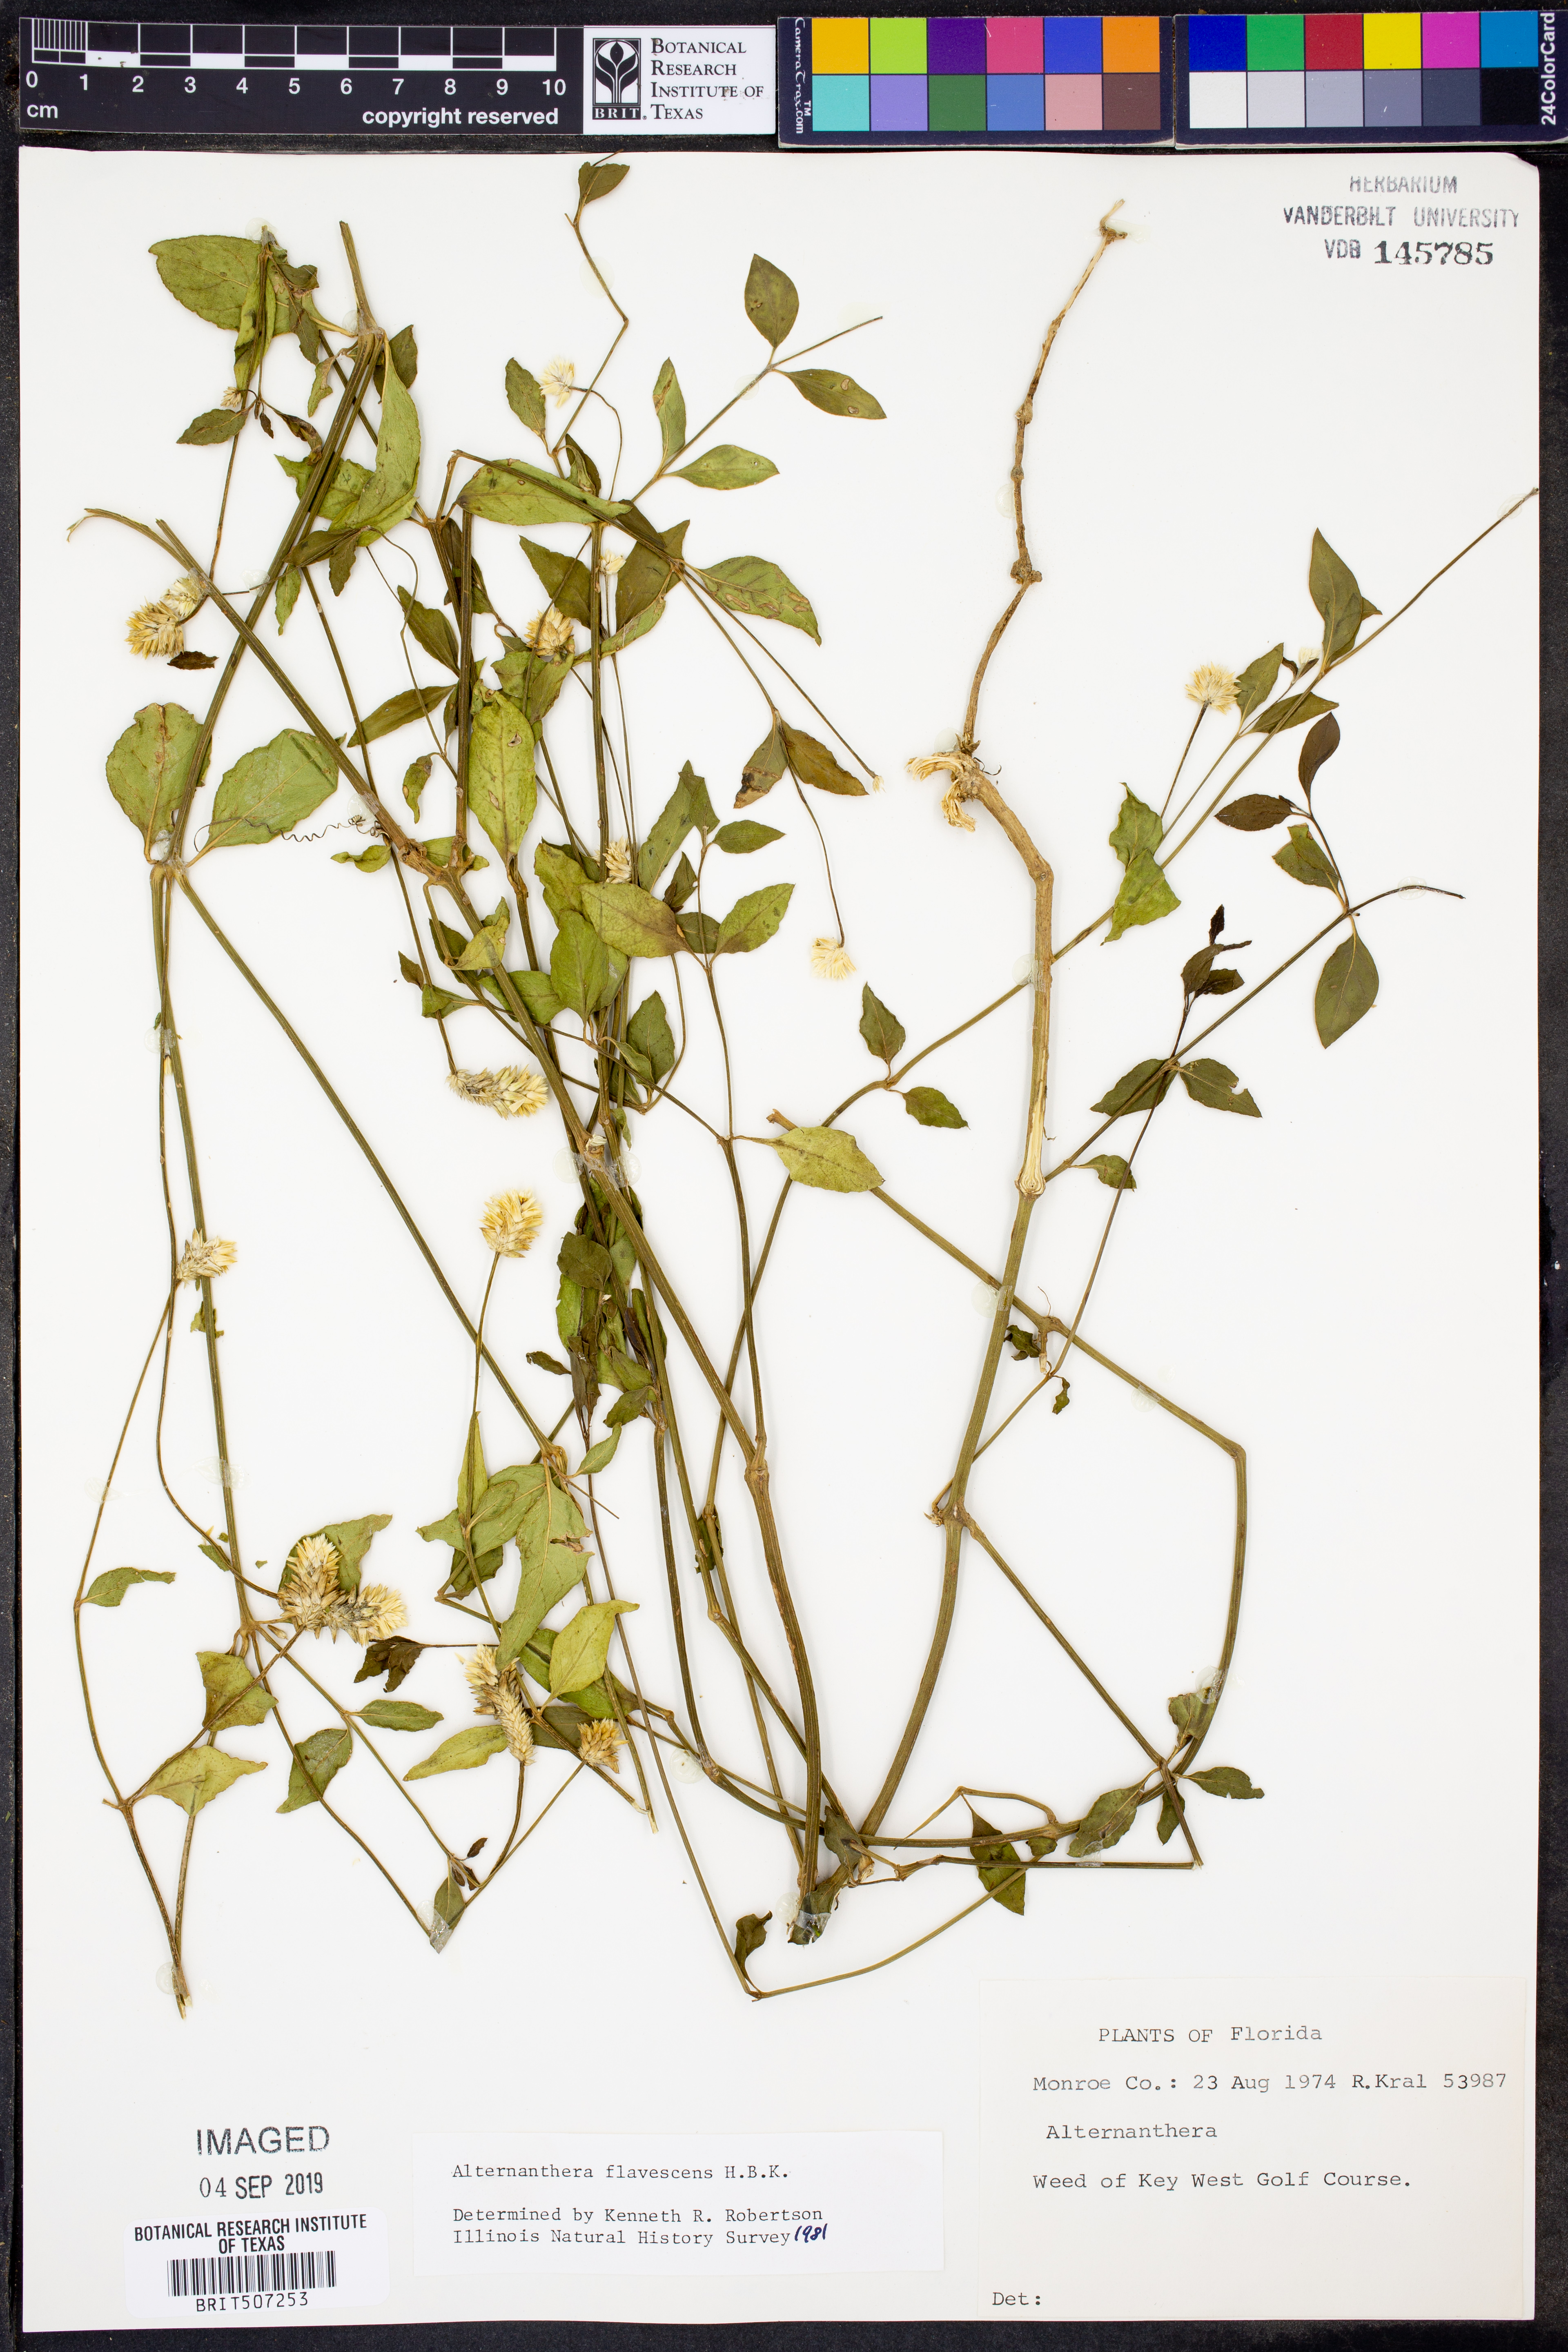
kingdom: Plantae
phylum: Tracheophyta
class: Magnoliopsida
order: Caryophyllales
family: Amaranthaceae
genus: Alternanthera
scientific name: Alternanthera flavescens
